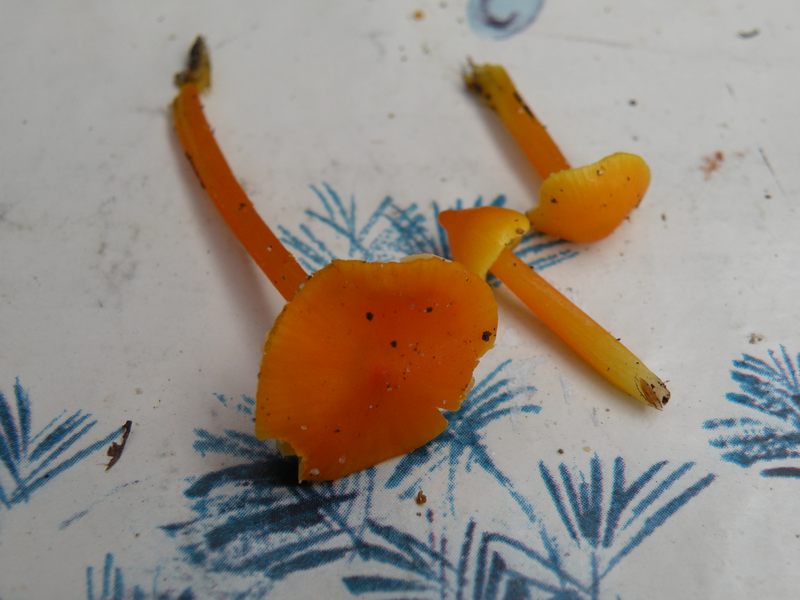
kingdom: Fungi
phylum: Basidiomycota
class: Agaricomycetes
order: Agaricales
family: Hygrophoraceae
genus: Hygrocybe
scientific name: Hygrocybe acutoconica
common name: spidspuklet vokshat
